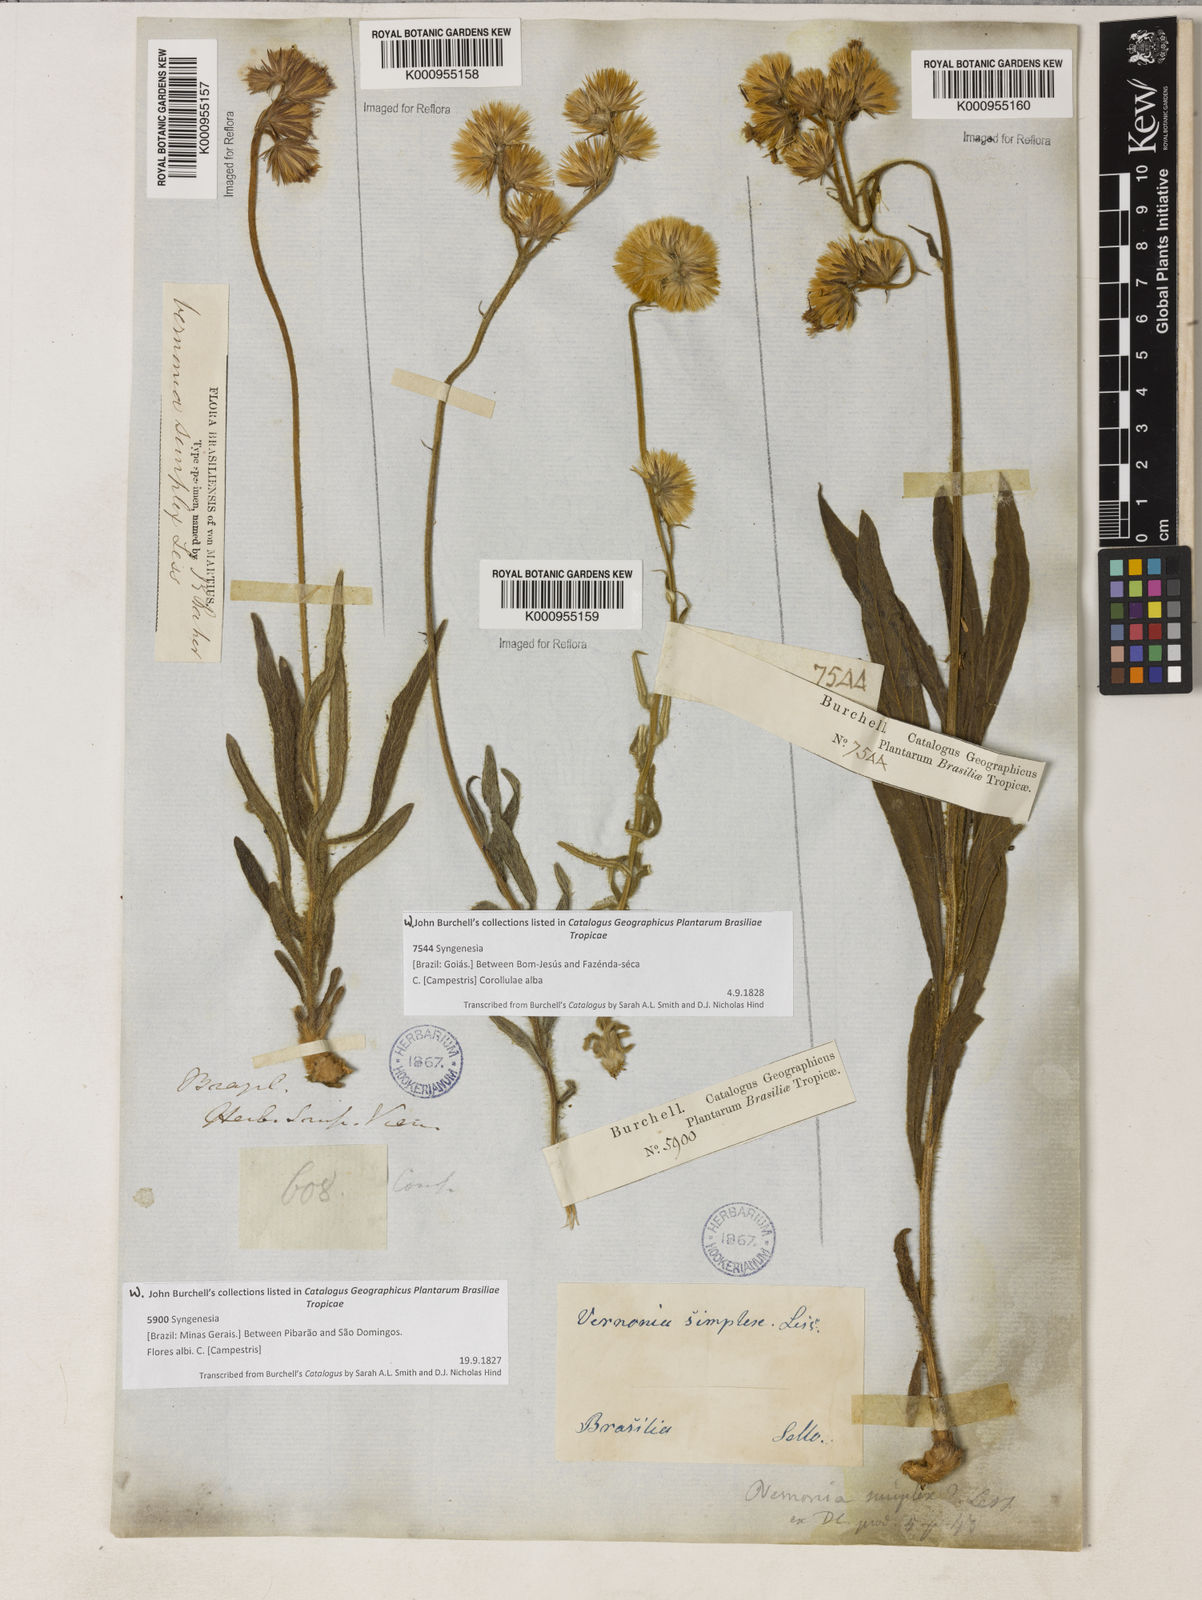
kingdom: Plantae
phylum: Tracheophyta
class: Magnoliopsida
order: Asterales
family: Asteraceae
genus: Chrysolaena
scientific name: Chrysolaena simplex
